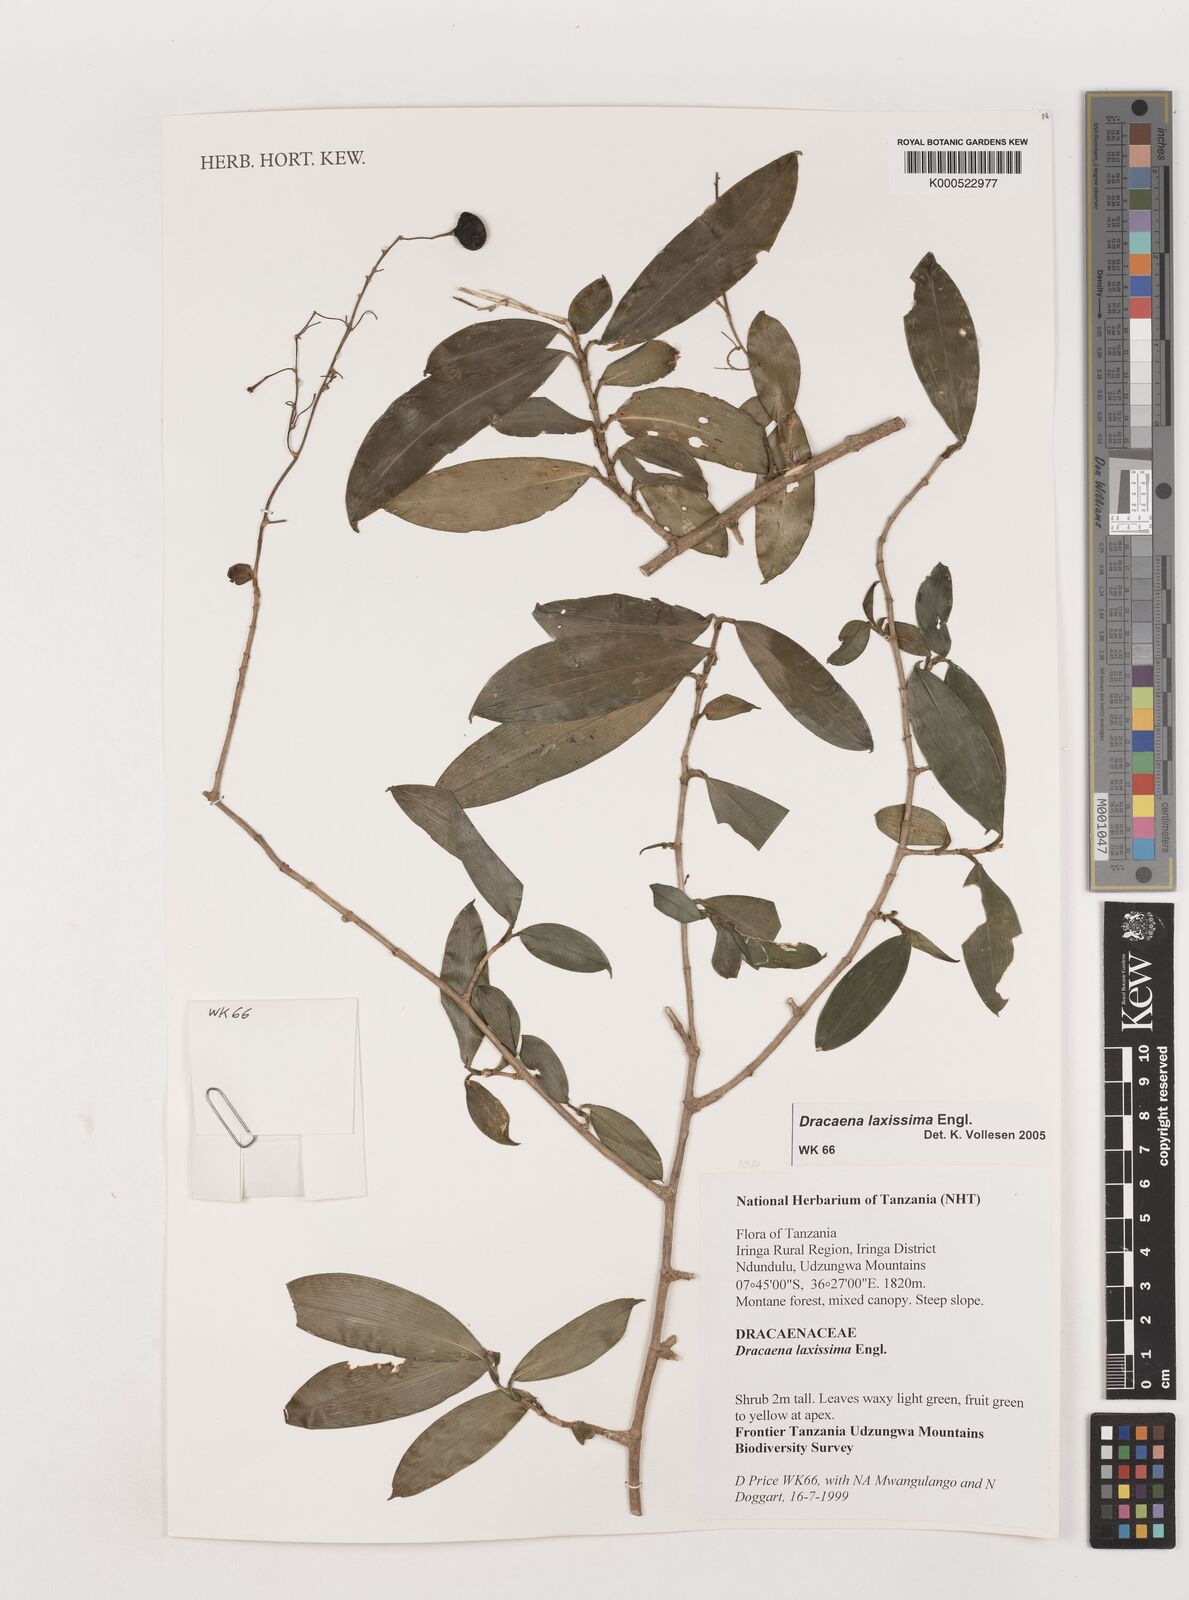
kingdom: Plantae
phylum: Tracheophyta
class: Liliopsida
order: Asparagales
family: Asparagaceae
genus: Dracaena
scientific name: Dracaena laxissima
